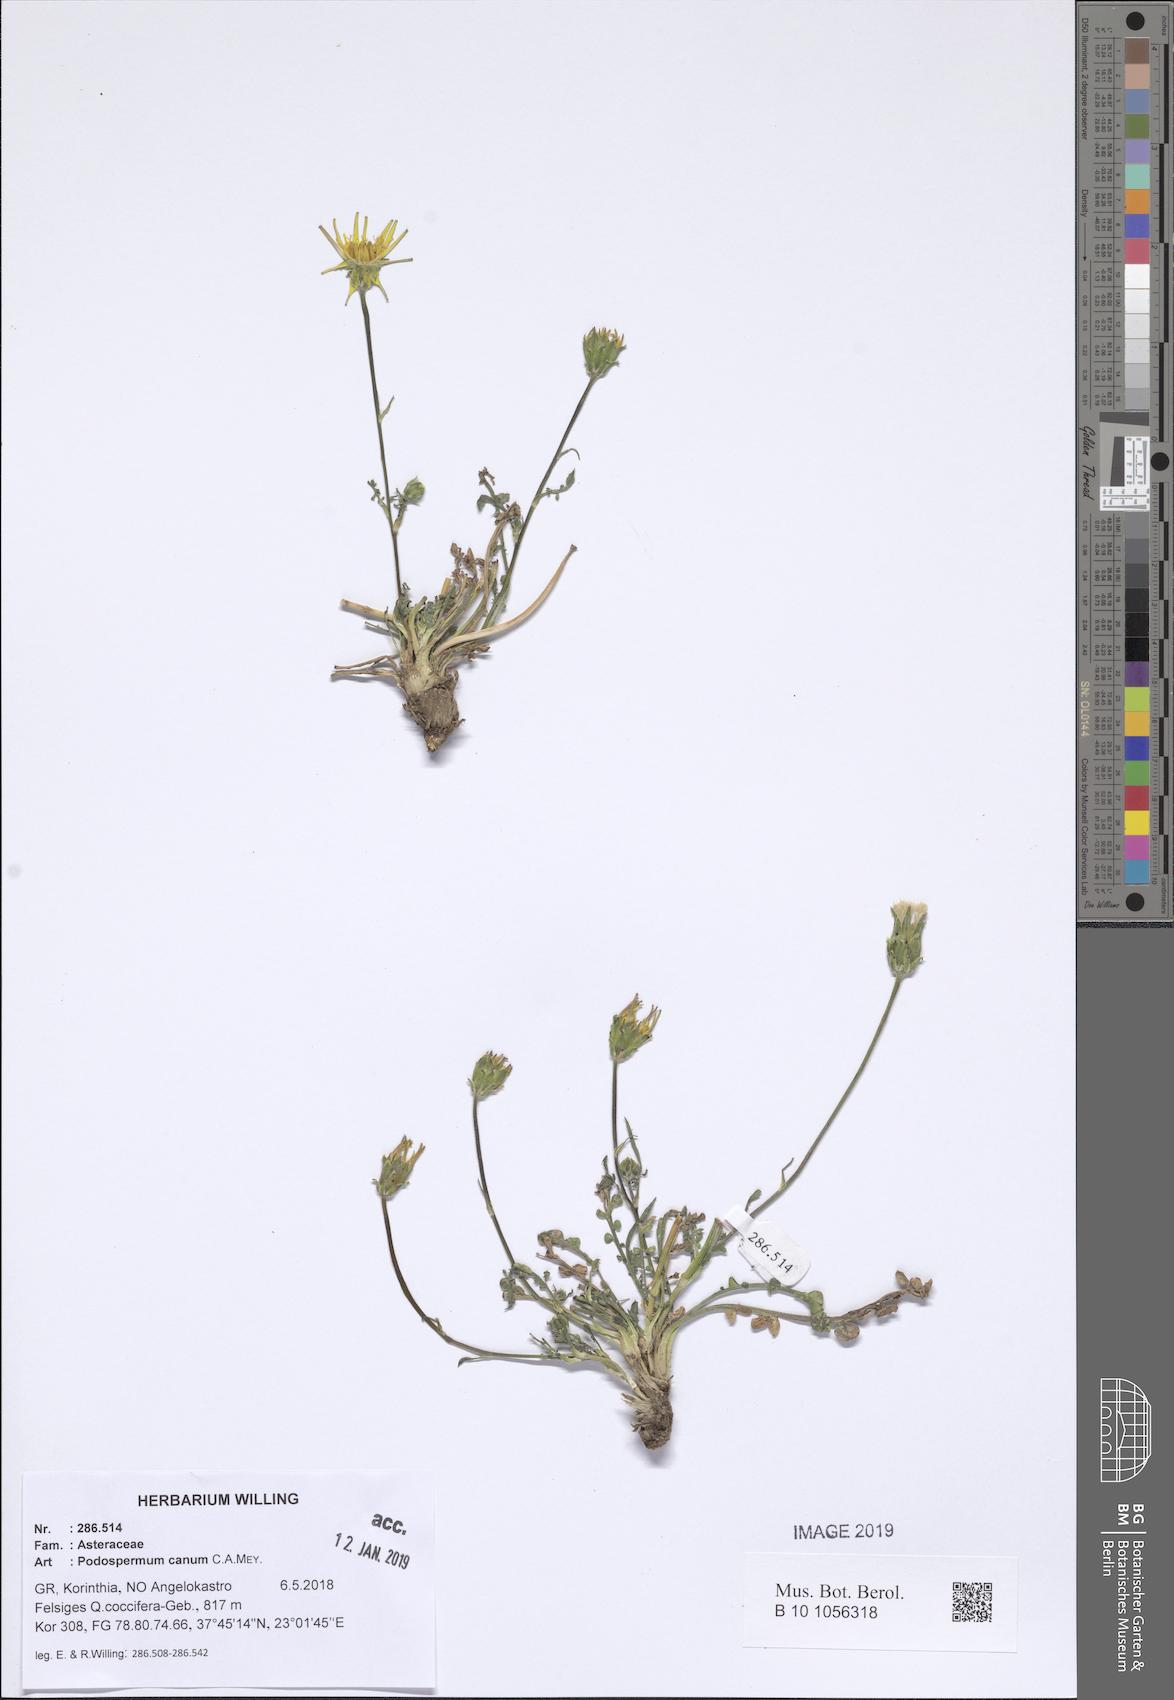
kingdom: Plantae
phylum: Tracheophyta
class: Magnoliopsida
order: Asterales
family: Asteraceae
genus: Scorzonera
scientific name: Scorzonera cana
